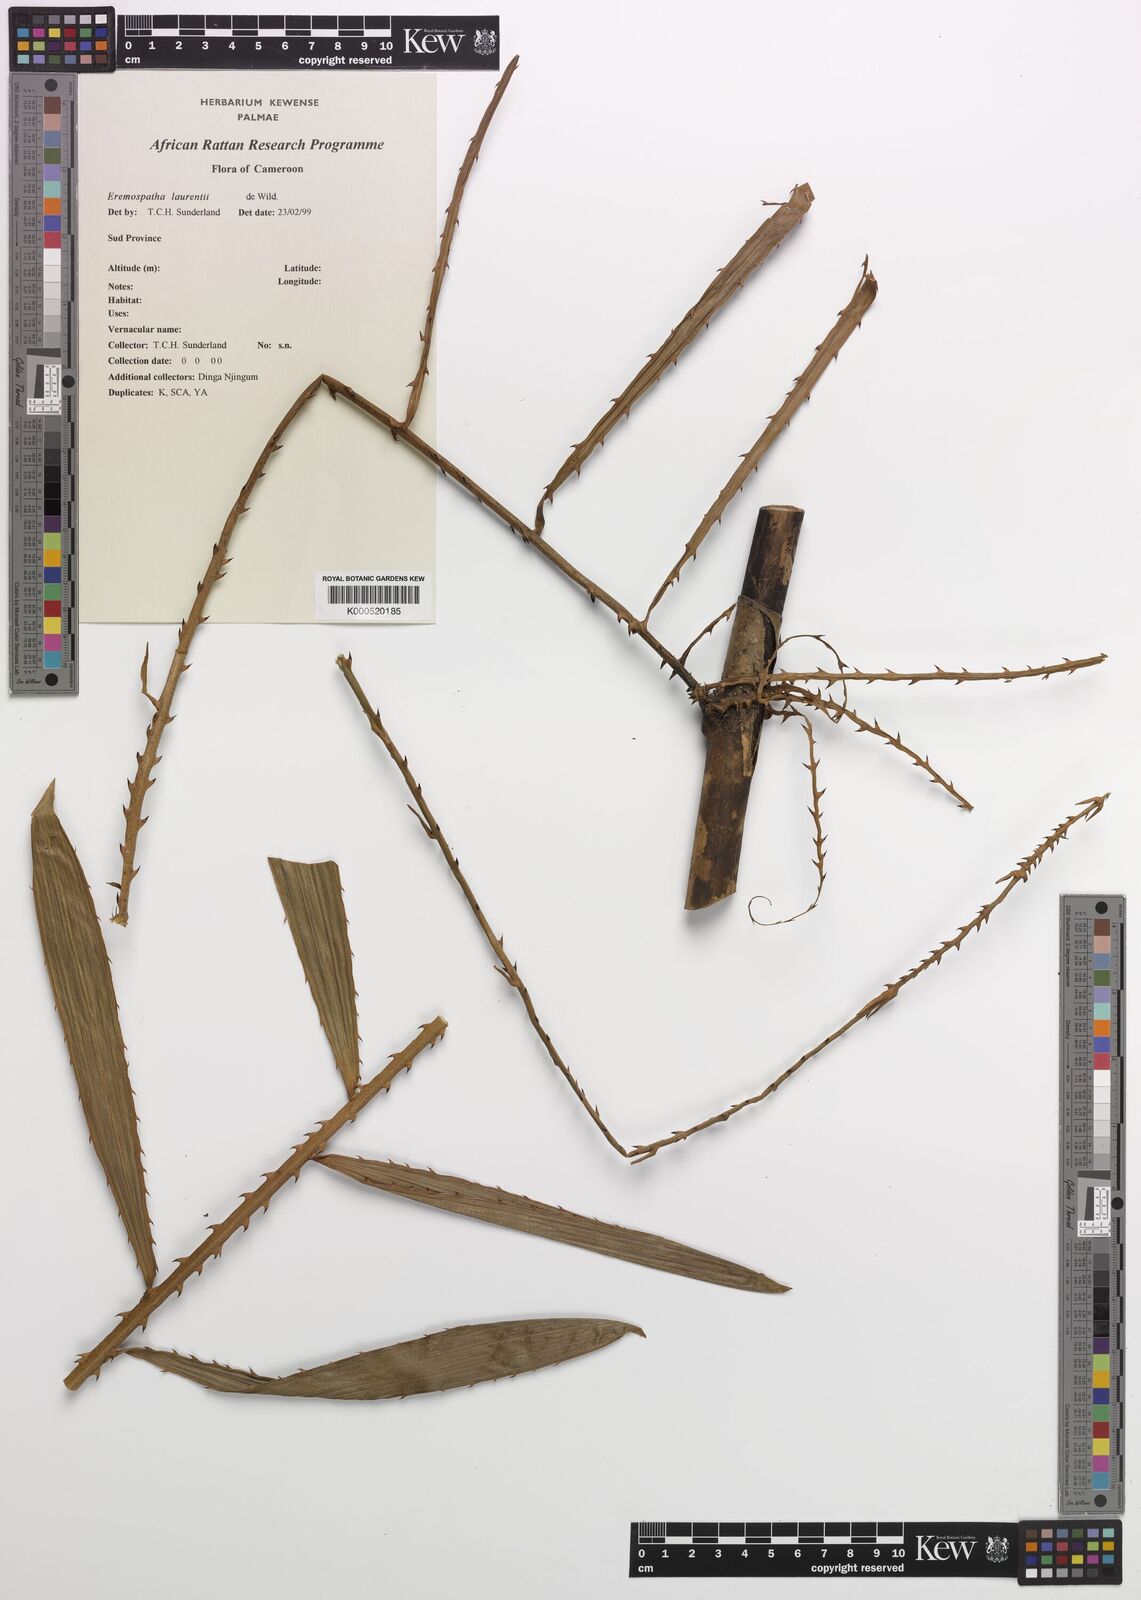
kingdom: Plantae
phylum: Tracheophyta
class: Liliopsida
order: Arecales
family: Arecaceae
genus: Eremospatha
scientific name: Eremospatha laurentii
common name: Rattan palm
